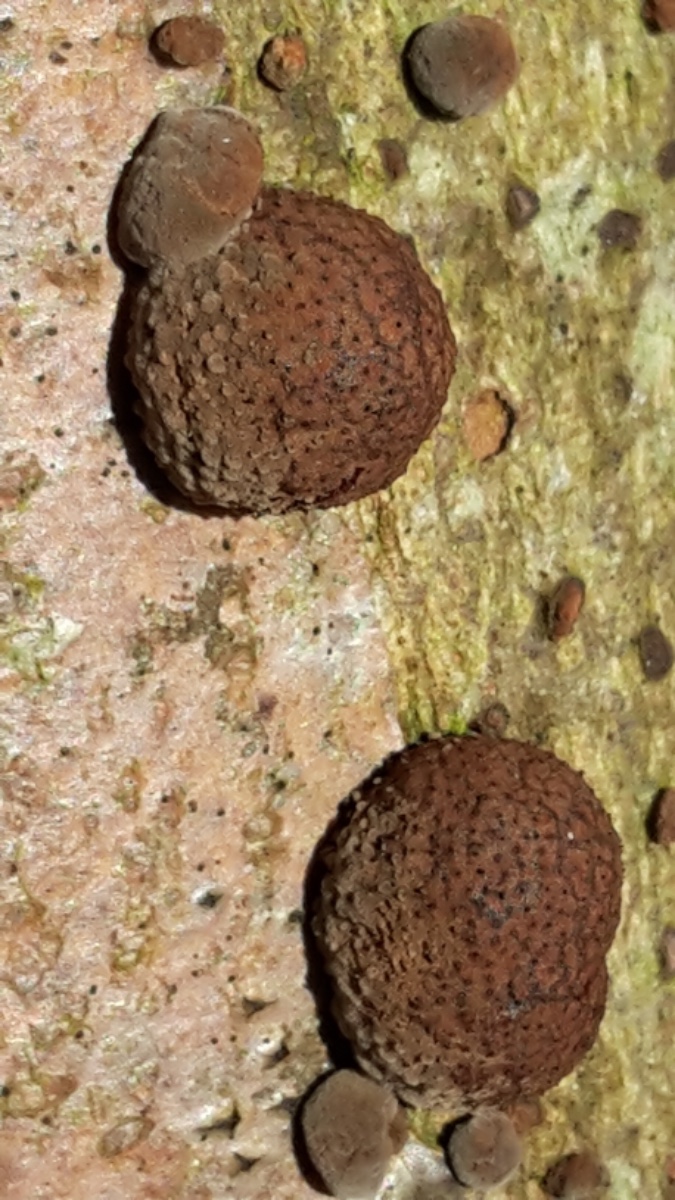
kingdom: Fungi
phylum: Ascomycota
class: Sordariomycetes
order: Xylariales
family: Hypoxylaceae
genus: Hypoxylon
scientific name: Hypoxylon fragiforme
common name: kuljordbær
